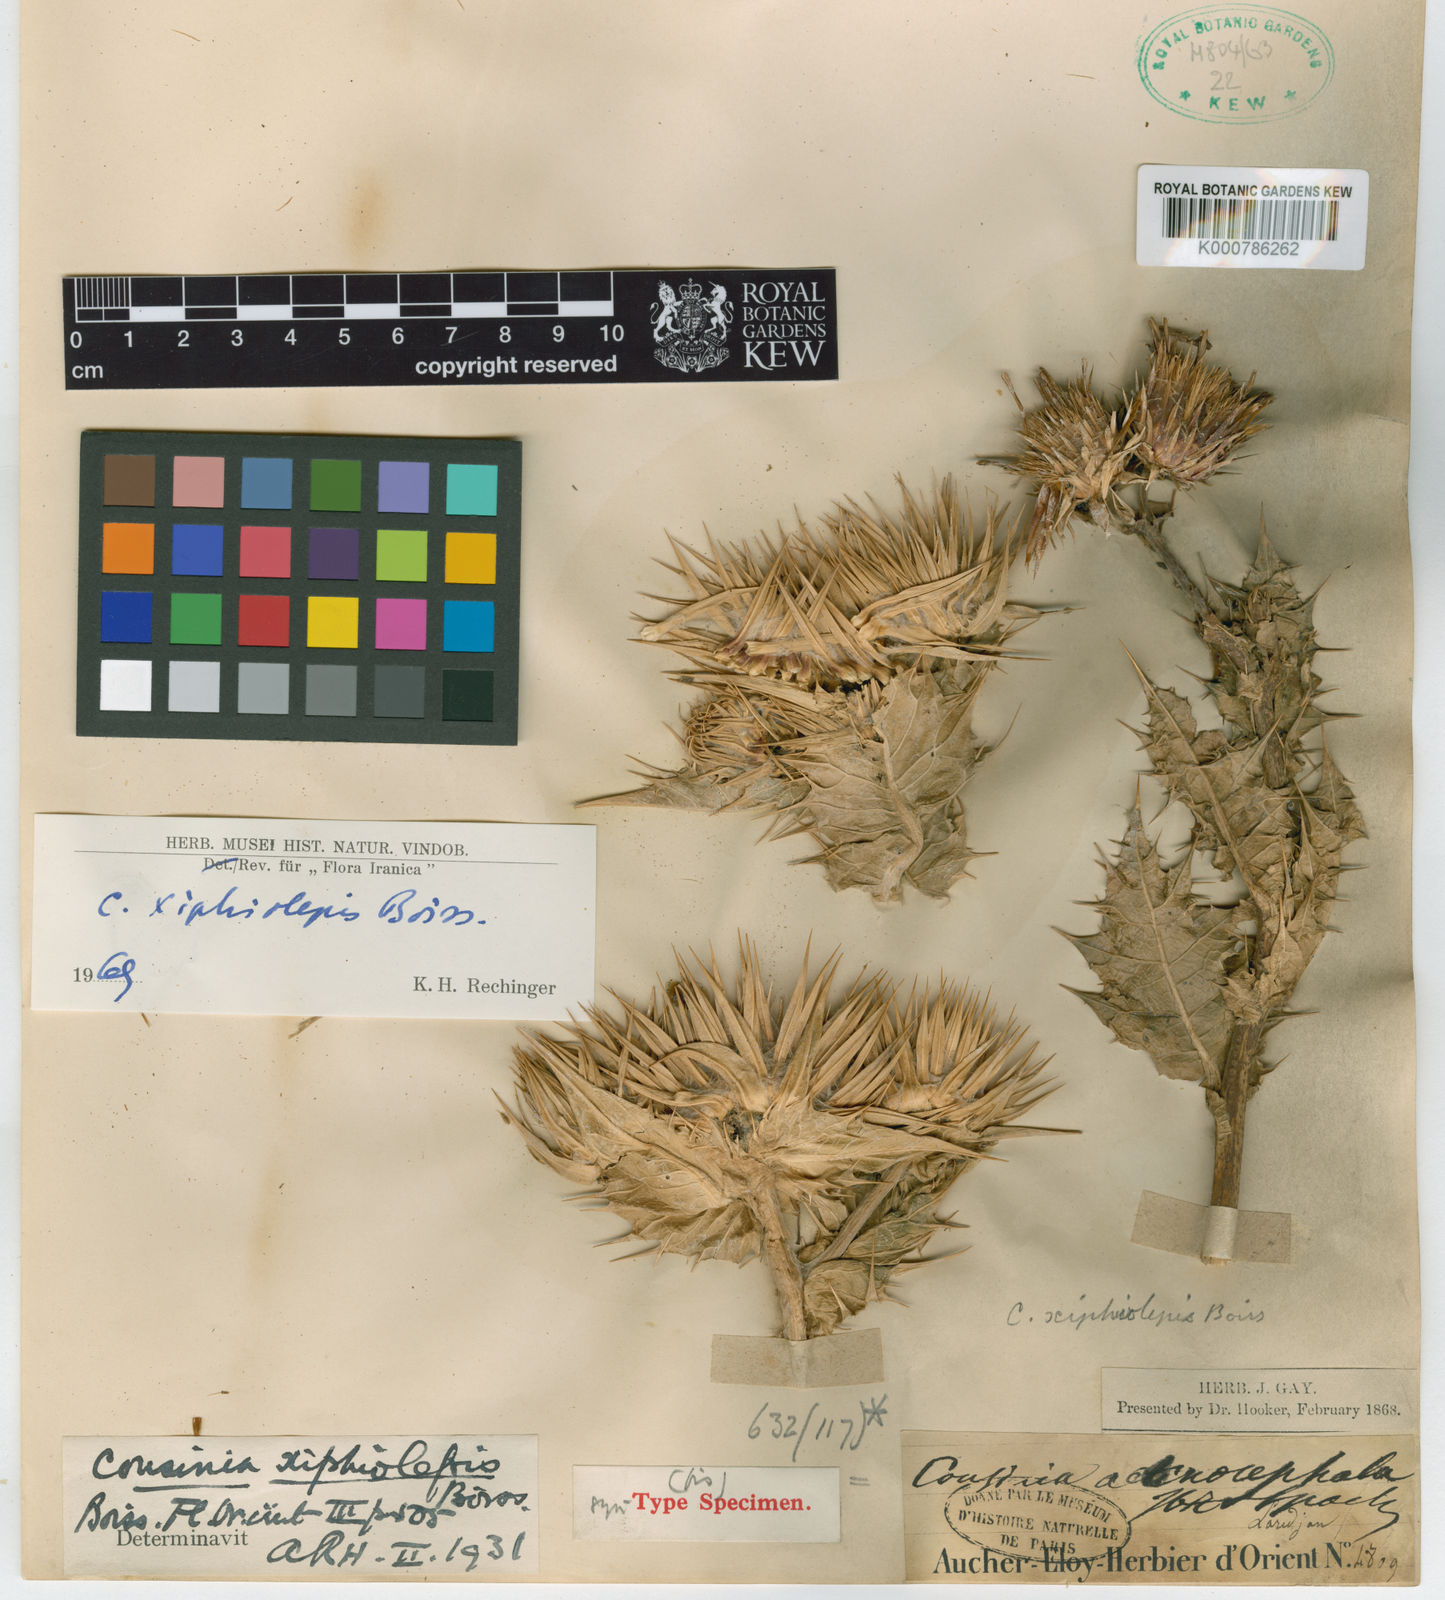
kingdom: Plantae
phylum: Tracheophyta
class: Magnoliopsida
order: Asterales
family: Asteraceae
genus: Cousinia
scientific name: Cousinia
